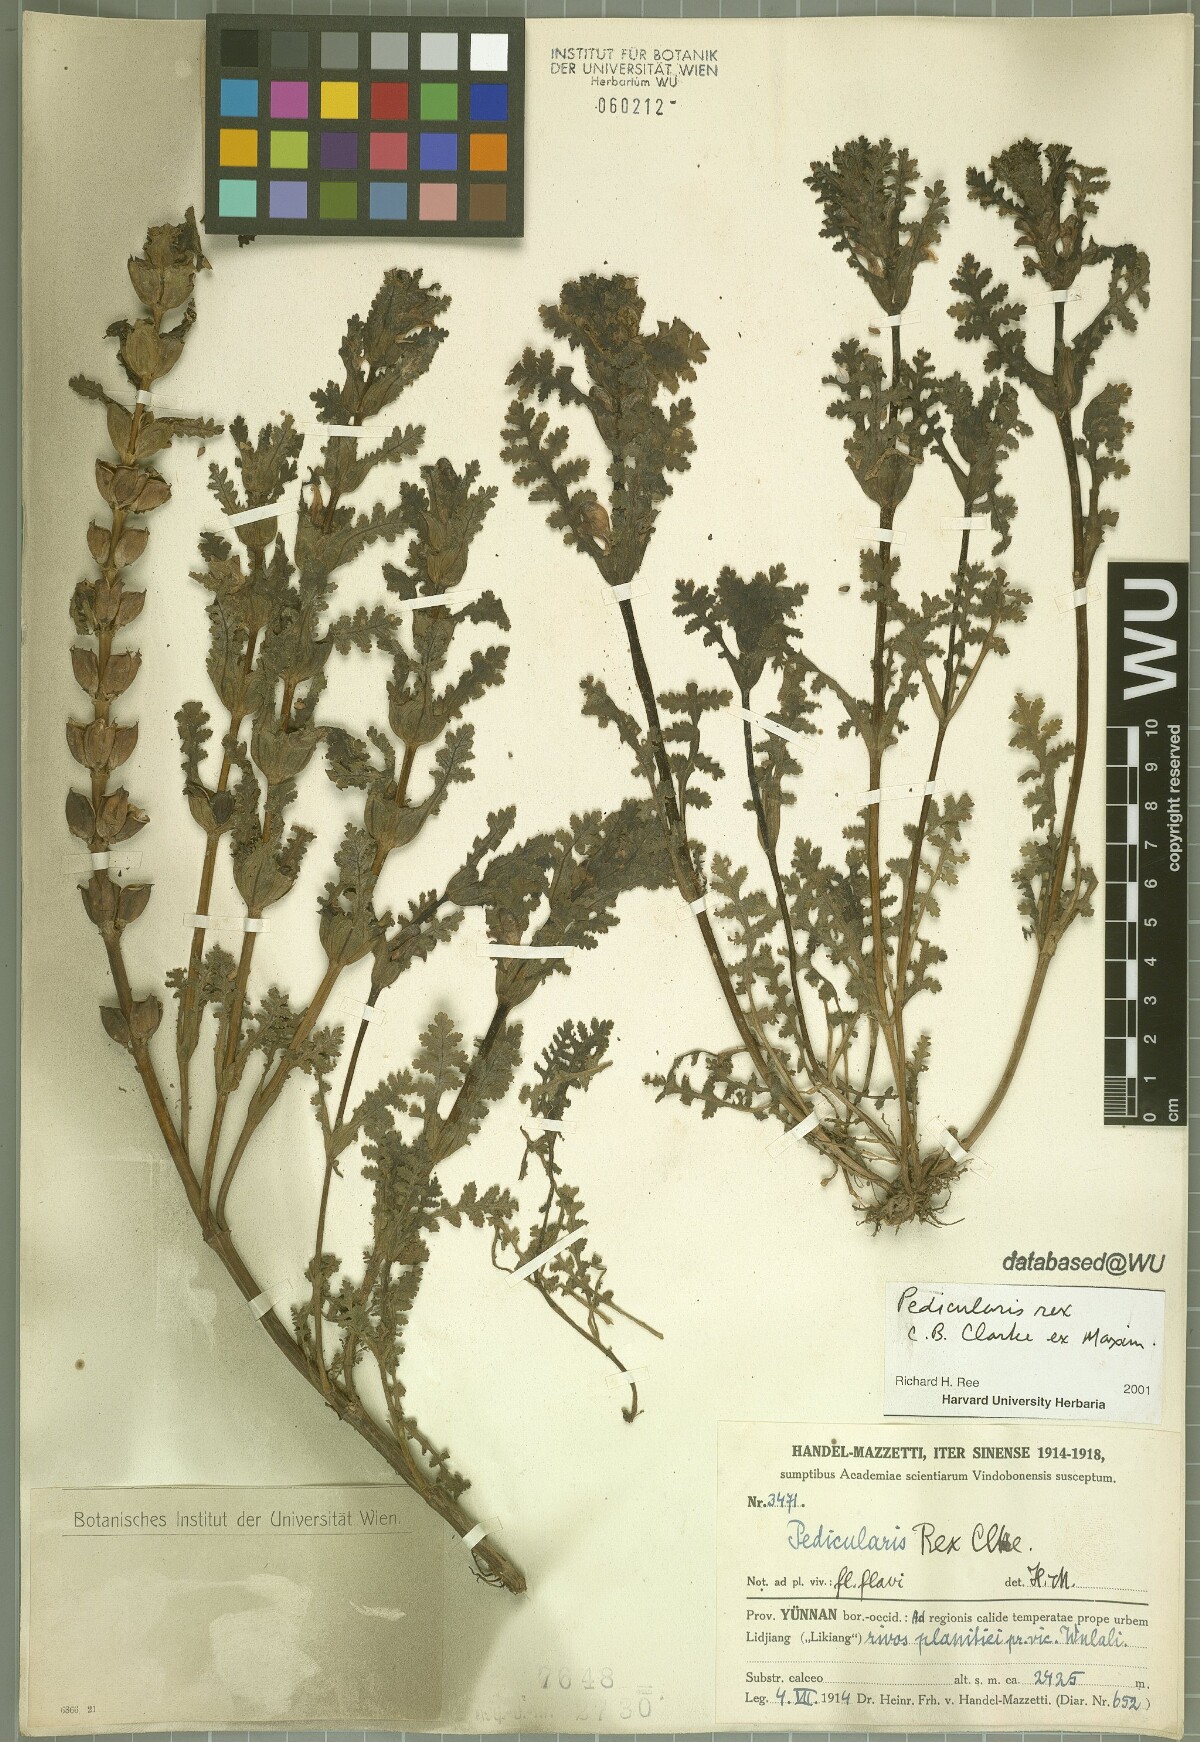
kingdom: Plantae
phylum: Tracheophyta
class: Magnoliopsida
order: Lamiales
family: Orobanchaceae
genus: Pedicularis
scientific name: Pedicularis rex
